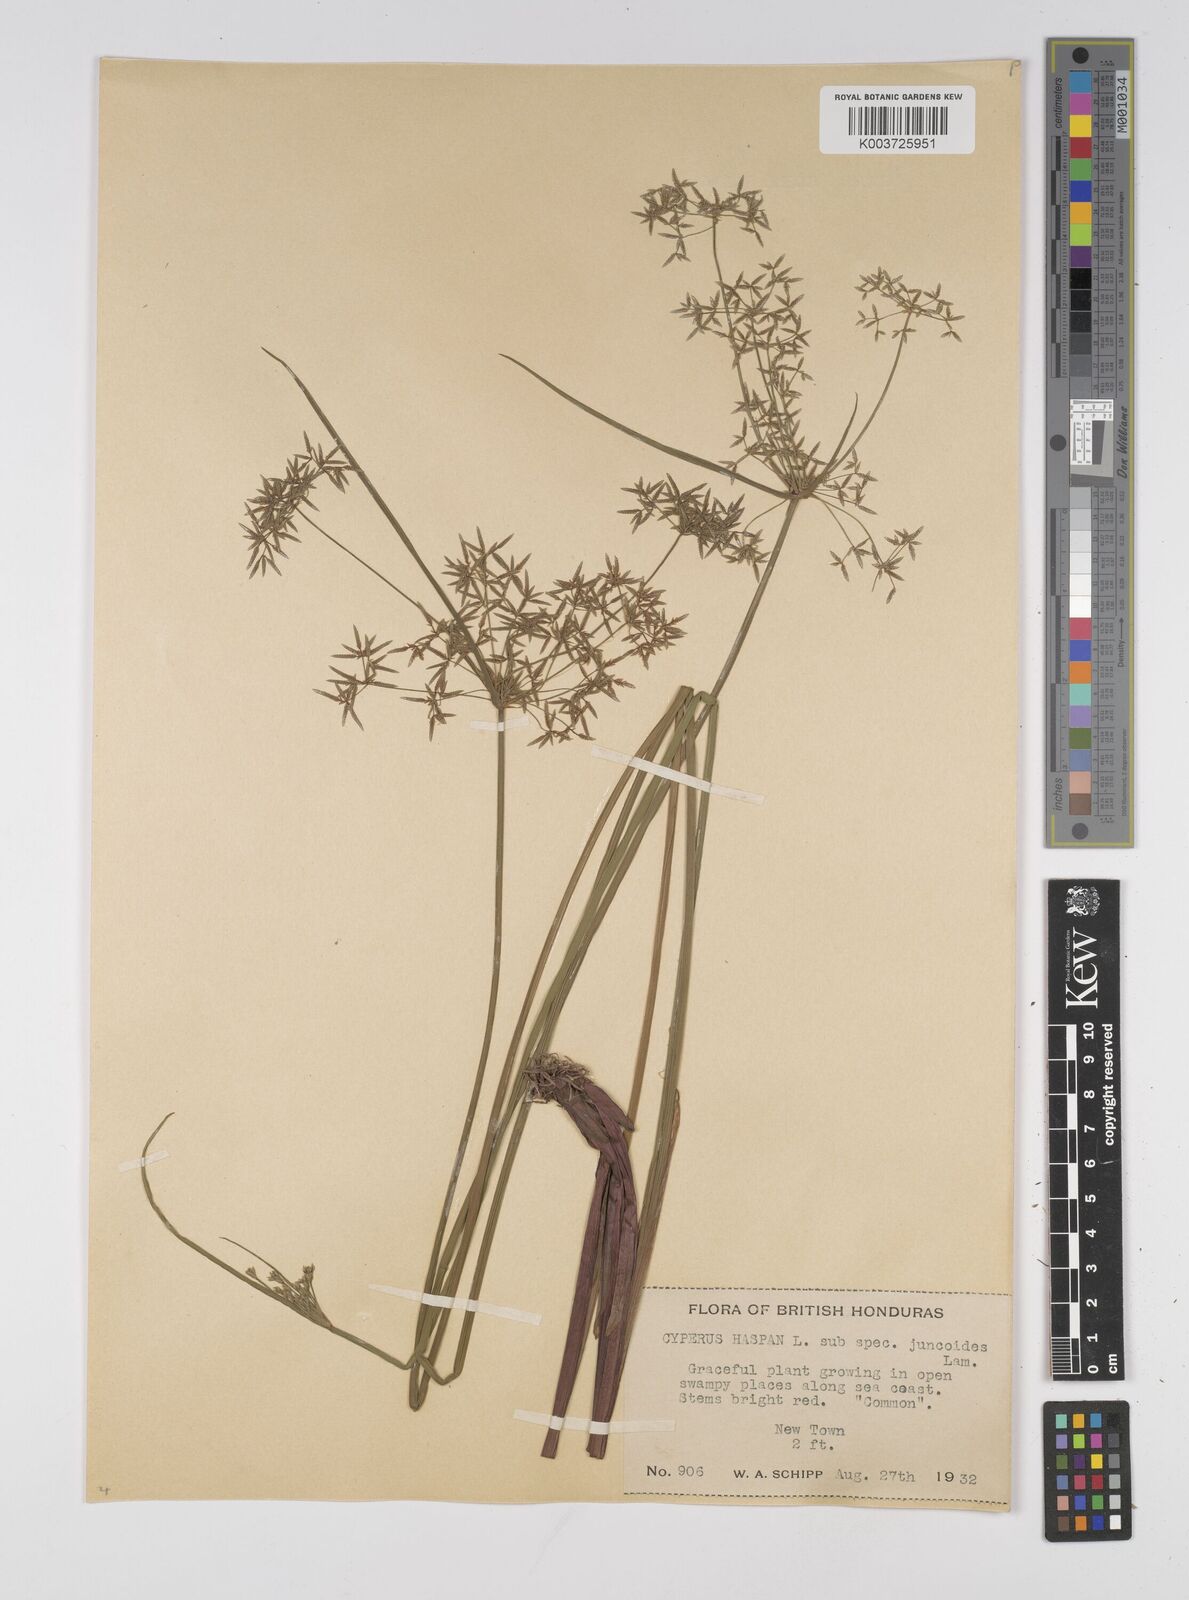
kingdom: Plantae
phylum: Tracheophyta
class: Liliopsida
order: Poales
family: Cyperaceae
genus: Cyperus
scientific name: Cyperus haspan
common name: Haspan flatsedge
